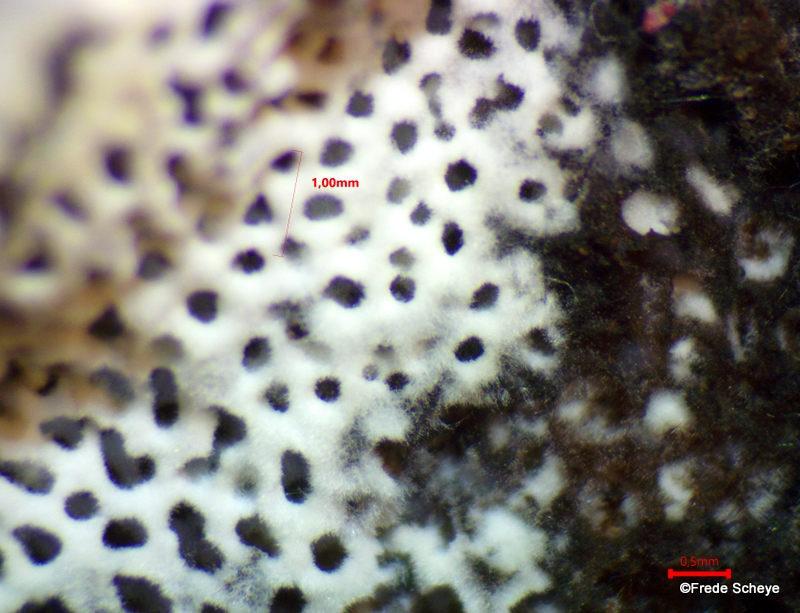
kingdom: Fungi
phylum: Basidiomycota
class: Agaricomycetes
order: Polyporales
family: Polyporaceae
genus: Szczepkamyces
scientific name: Szczepkamyces campestris
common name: hasselporesvamp
